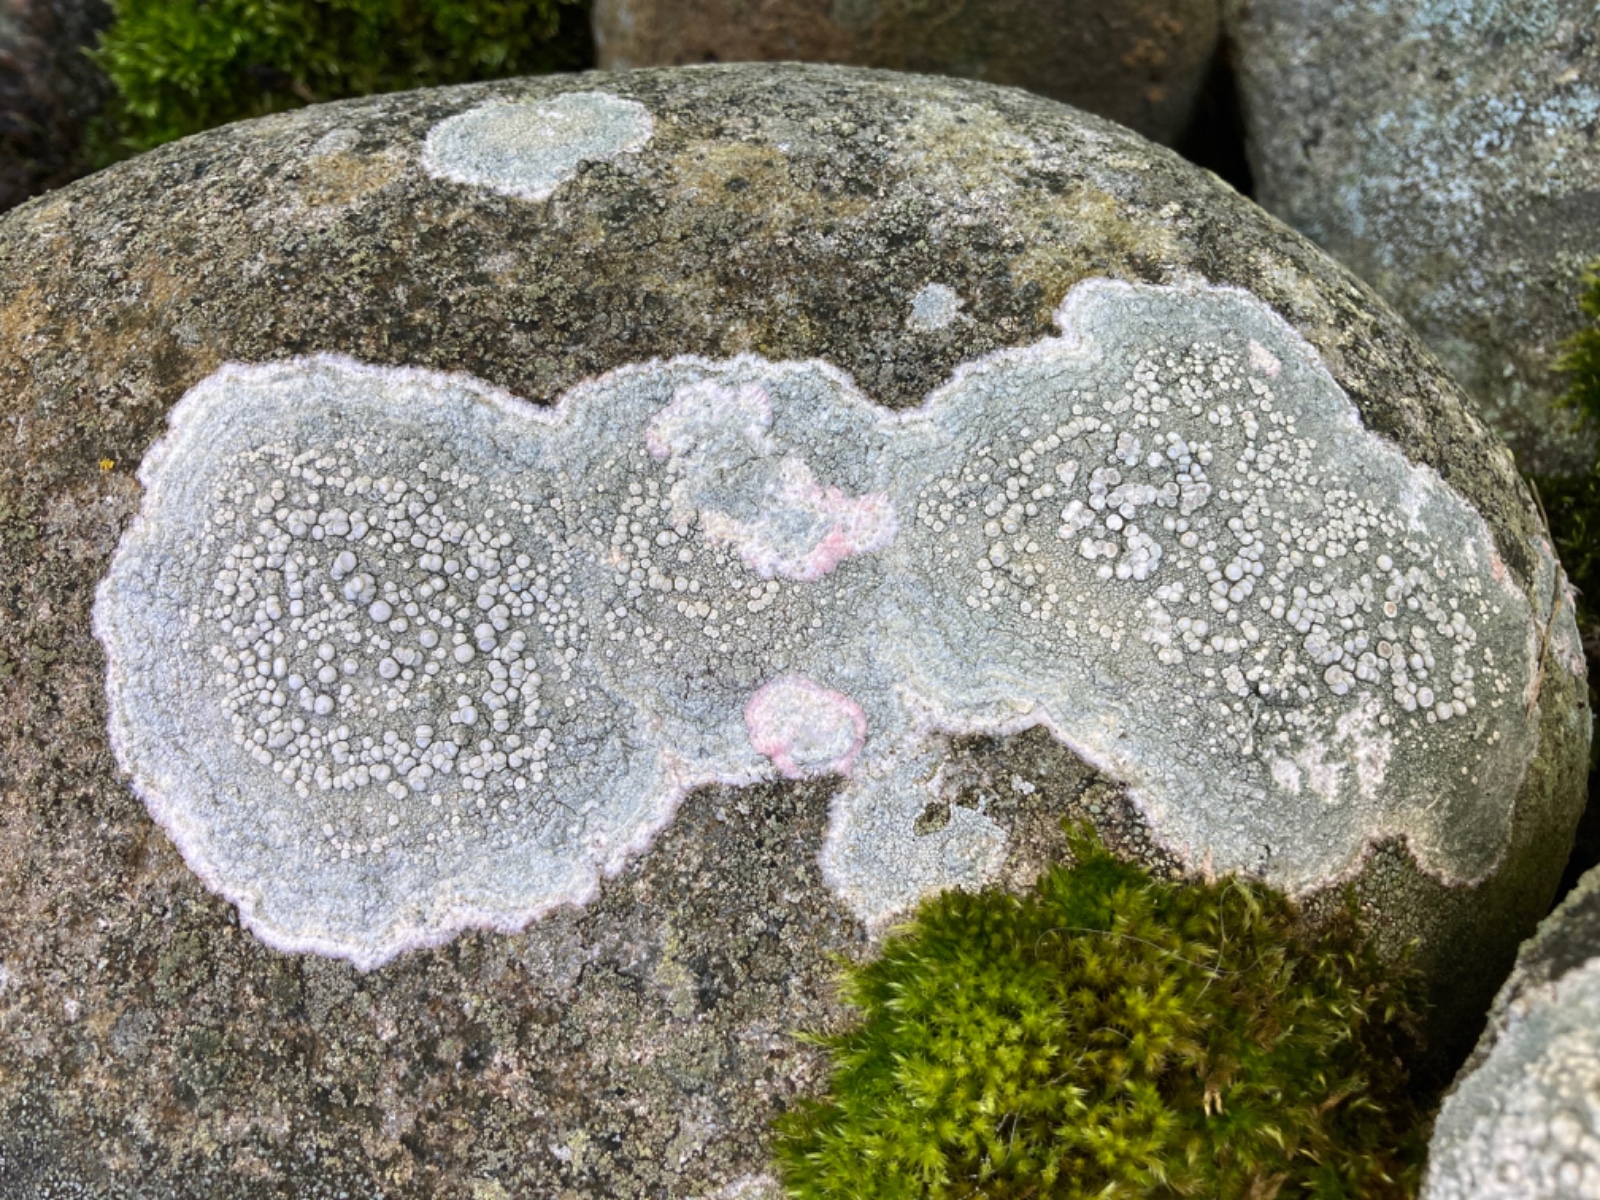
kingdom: Fungi
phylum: Ascomycota
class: Lecanoromycetes
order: Pertusariales
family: Ochrolechiaceae
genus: Ochrolechia
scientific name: Ochrolechia parella
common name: almindelig blegskivelav
